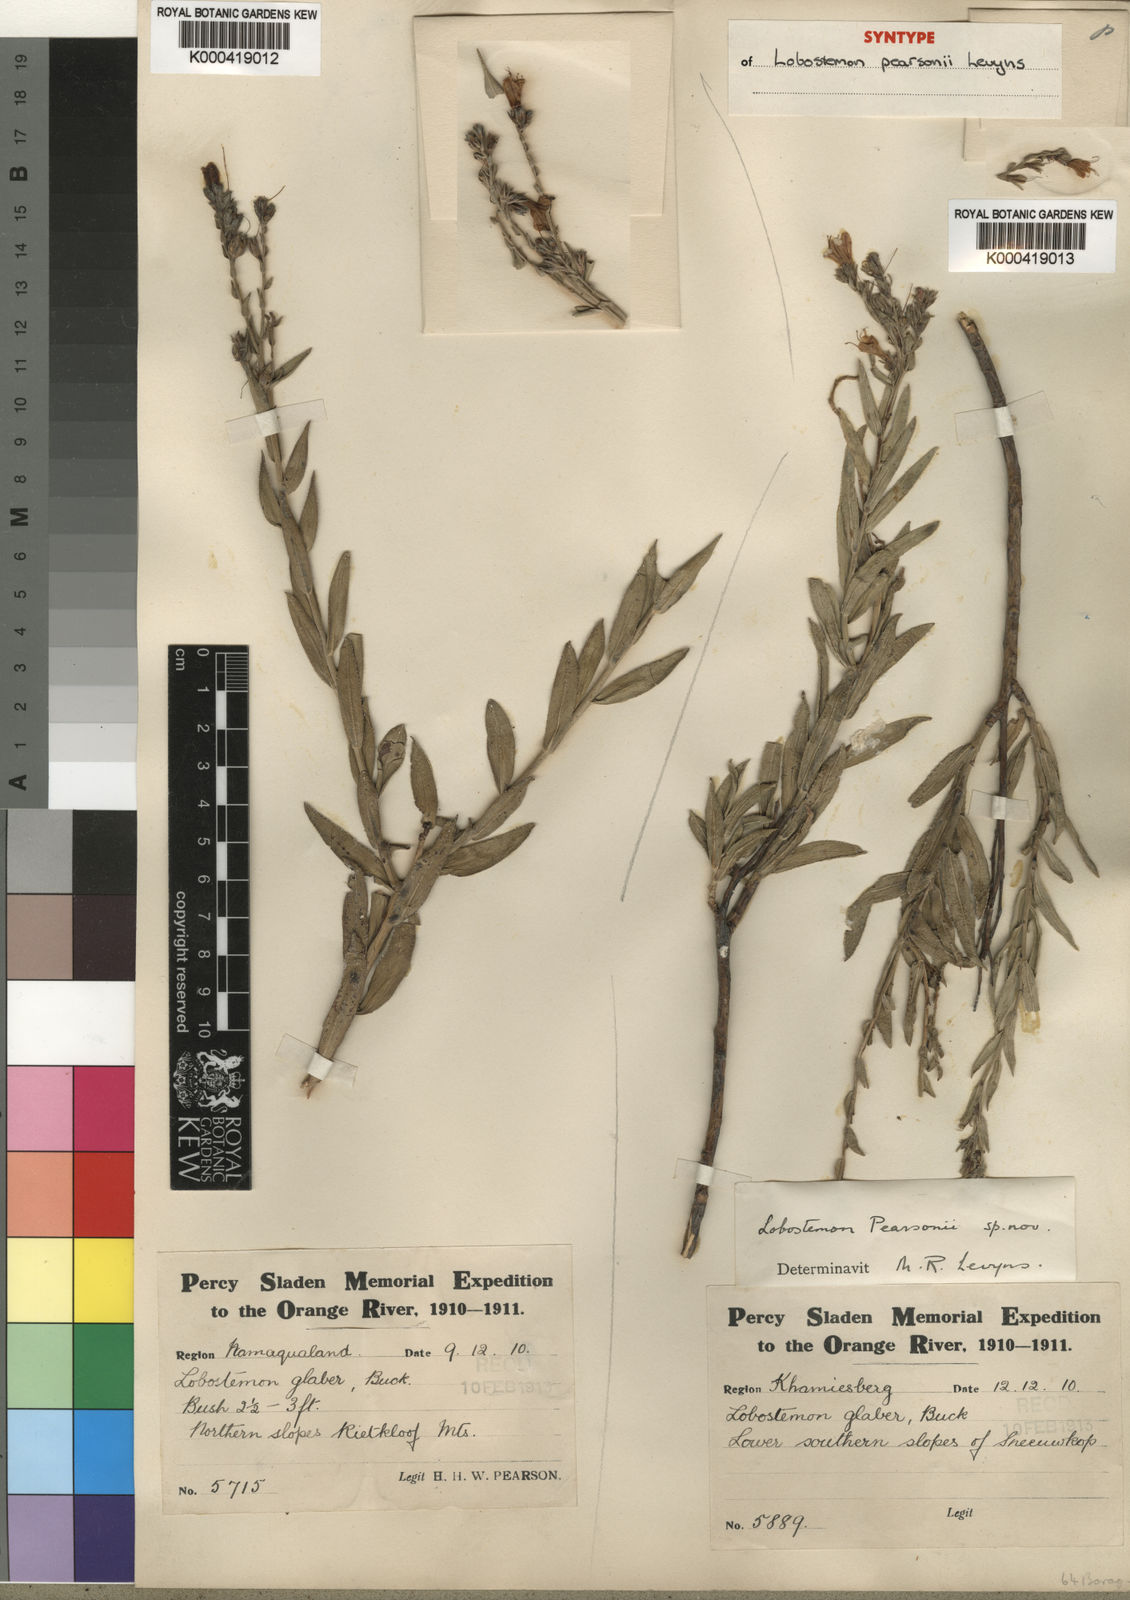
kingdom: Plantae
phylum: Tracheophyta
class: Magnoliopsida
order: Boraginales
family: Boraginaceae
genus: Lobostemon
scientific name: Lobostemon pearsonii
